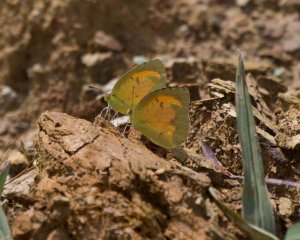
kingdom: Animalia
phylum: Arthropoda
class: Insecta
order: Lepidoptera
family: Pieridae
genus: Abaeis
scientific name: Abaeis nicippe
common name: Sleepy Orange
